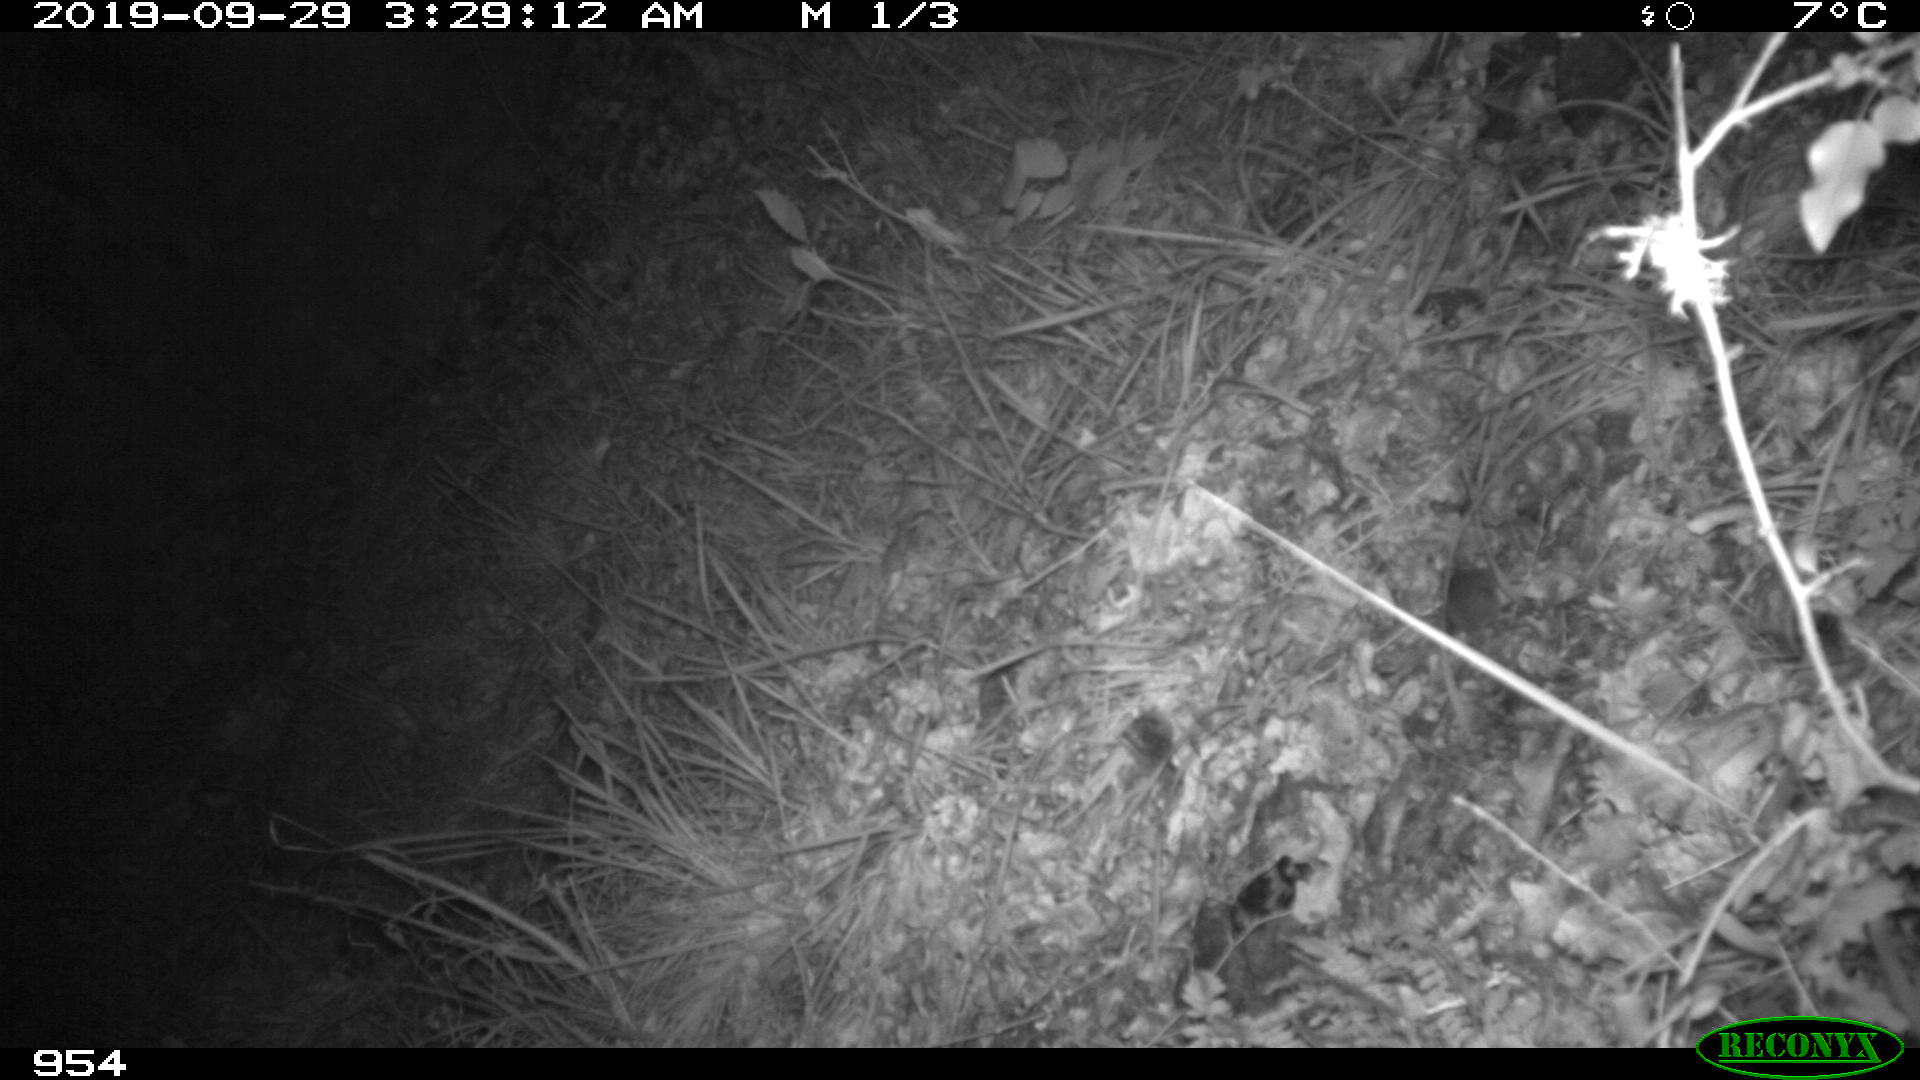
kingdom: Animalia
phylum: Chordata
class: Mammalia
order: Rodentia
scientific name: Rodentia
